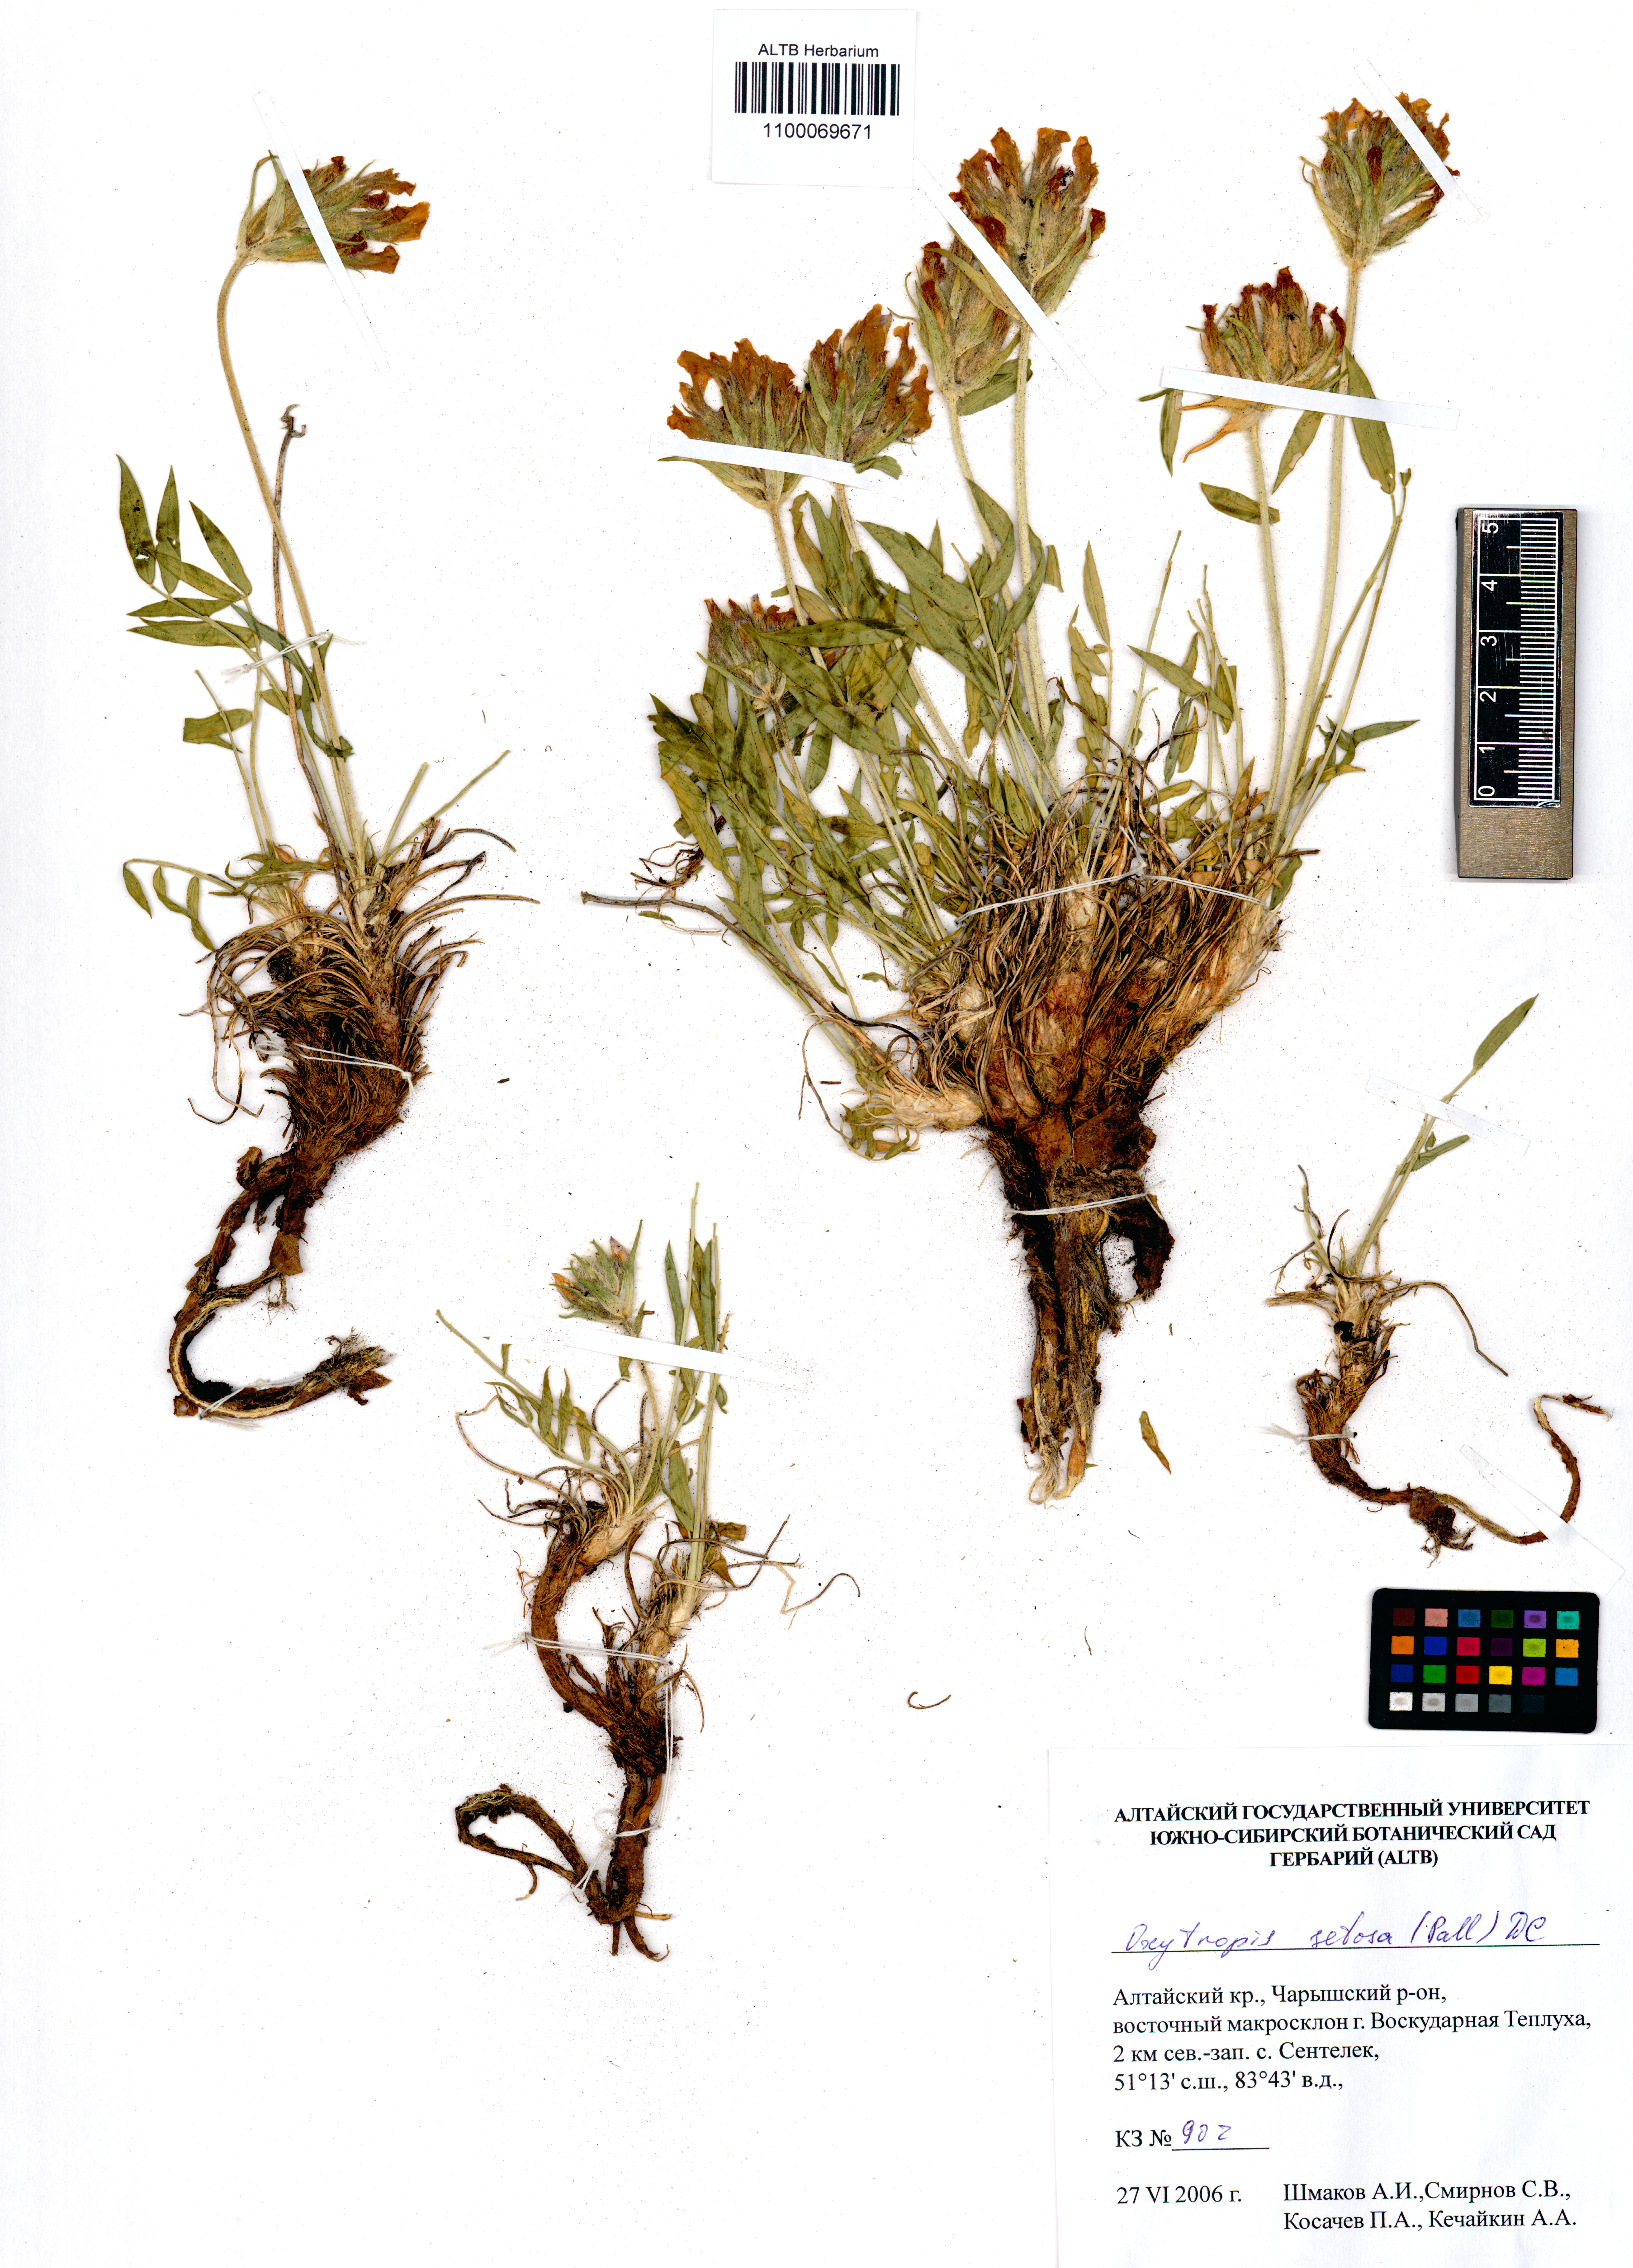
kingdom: Plantae
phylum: Tracheophyta
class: Magnoliopsida
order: Fabales
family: Fabaceae
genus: Oxytropis
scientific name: Oxytropis setosa
